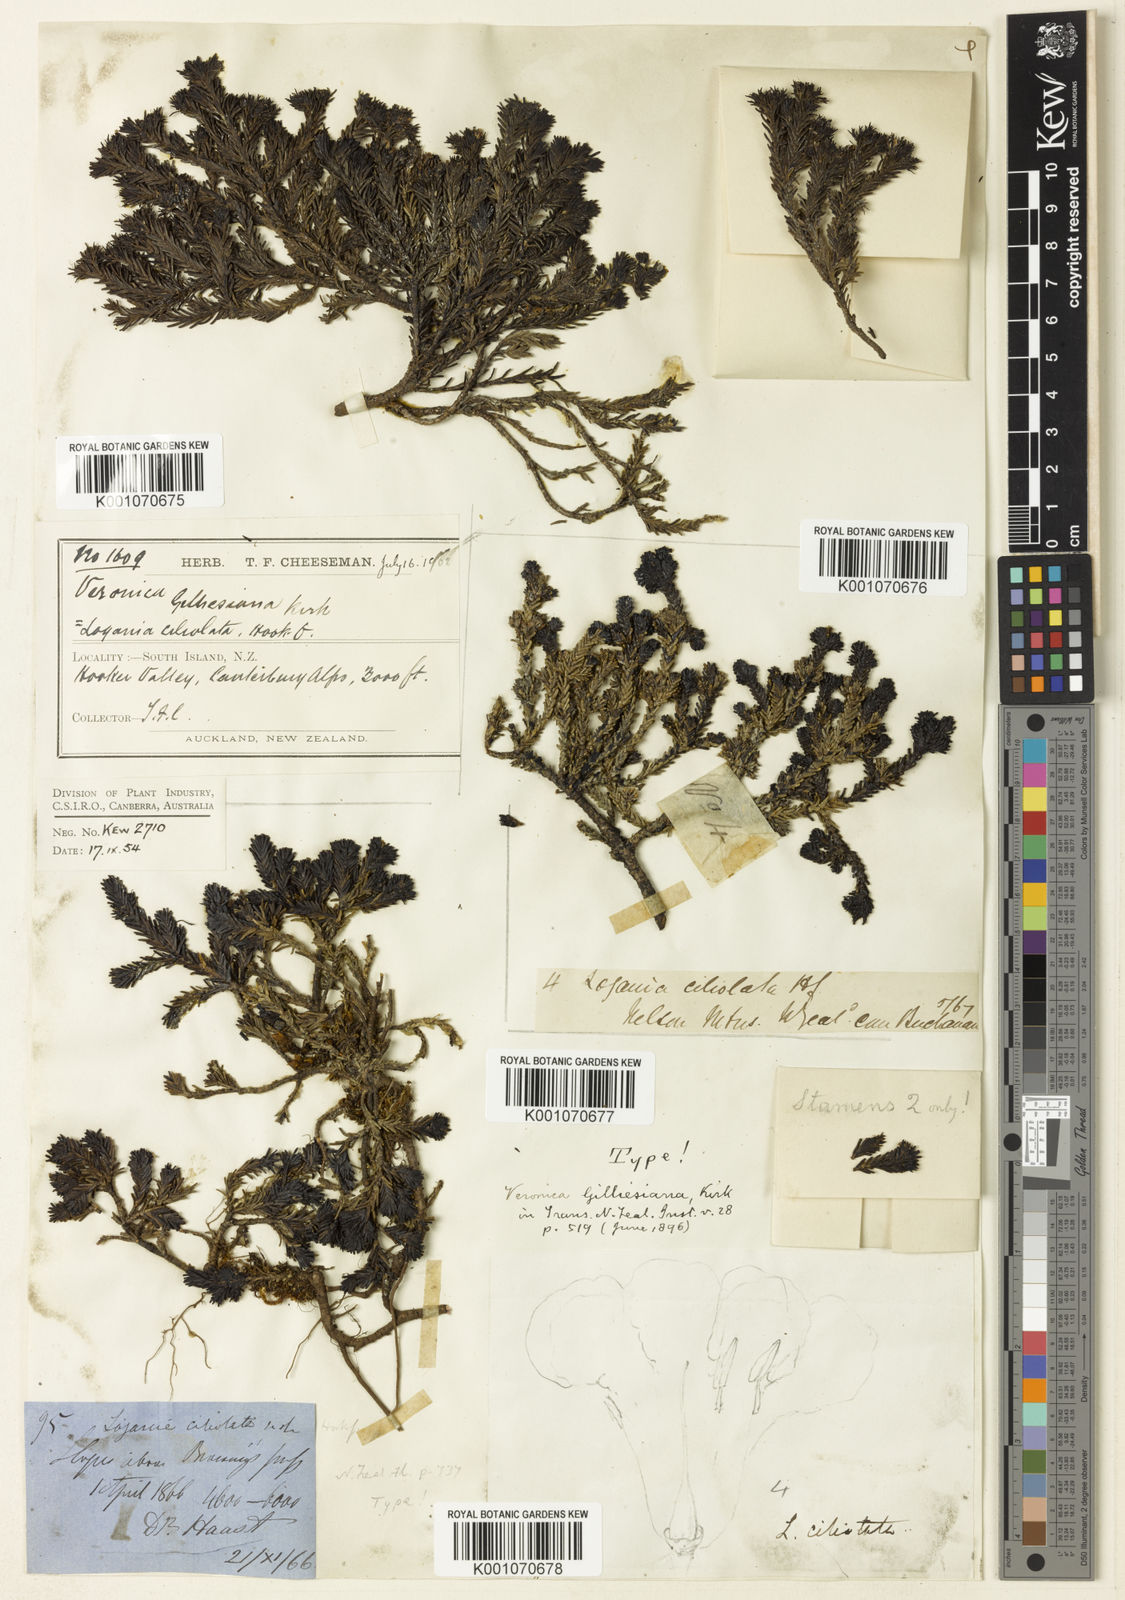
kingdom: Plantae
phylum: Tracheophyta
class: Magnoliopsida
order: Lamiales
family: Plantaginaceae
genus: Veronica
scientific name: Veronica ciliolata
